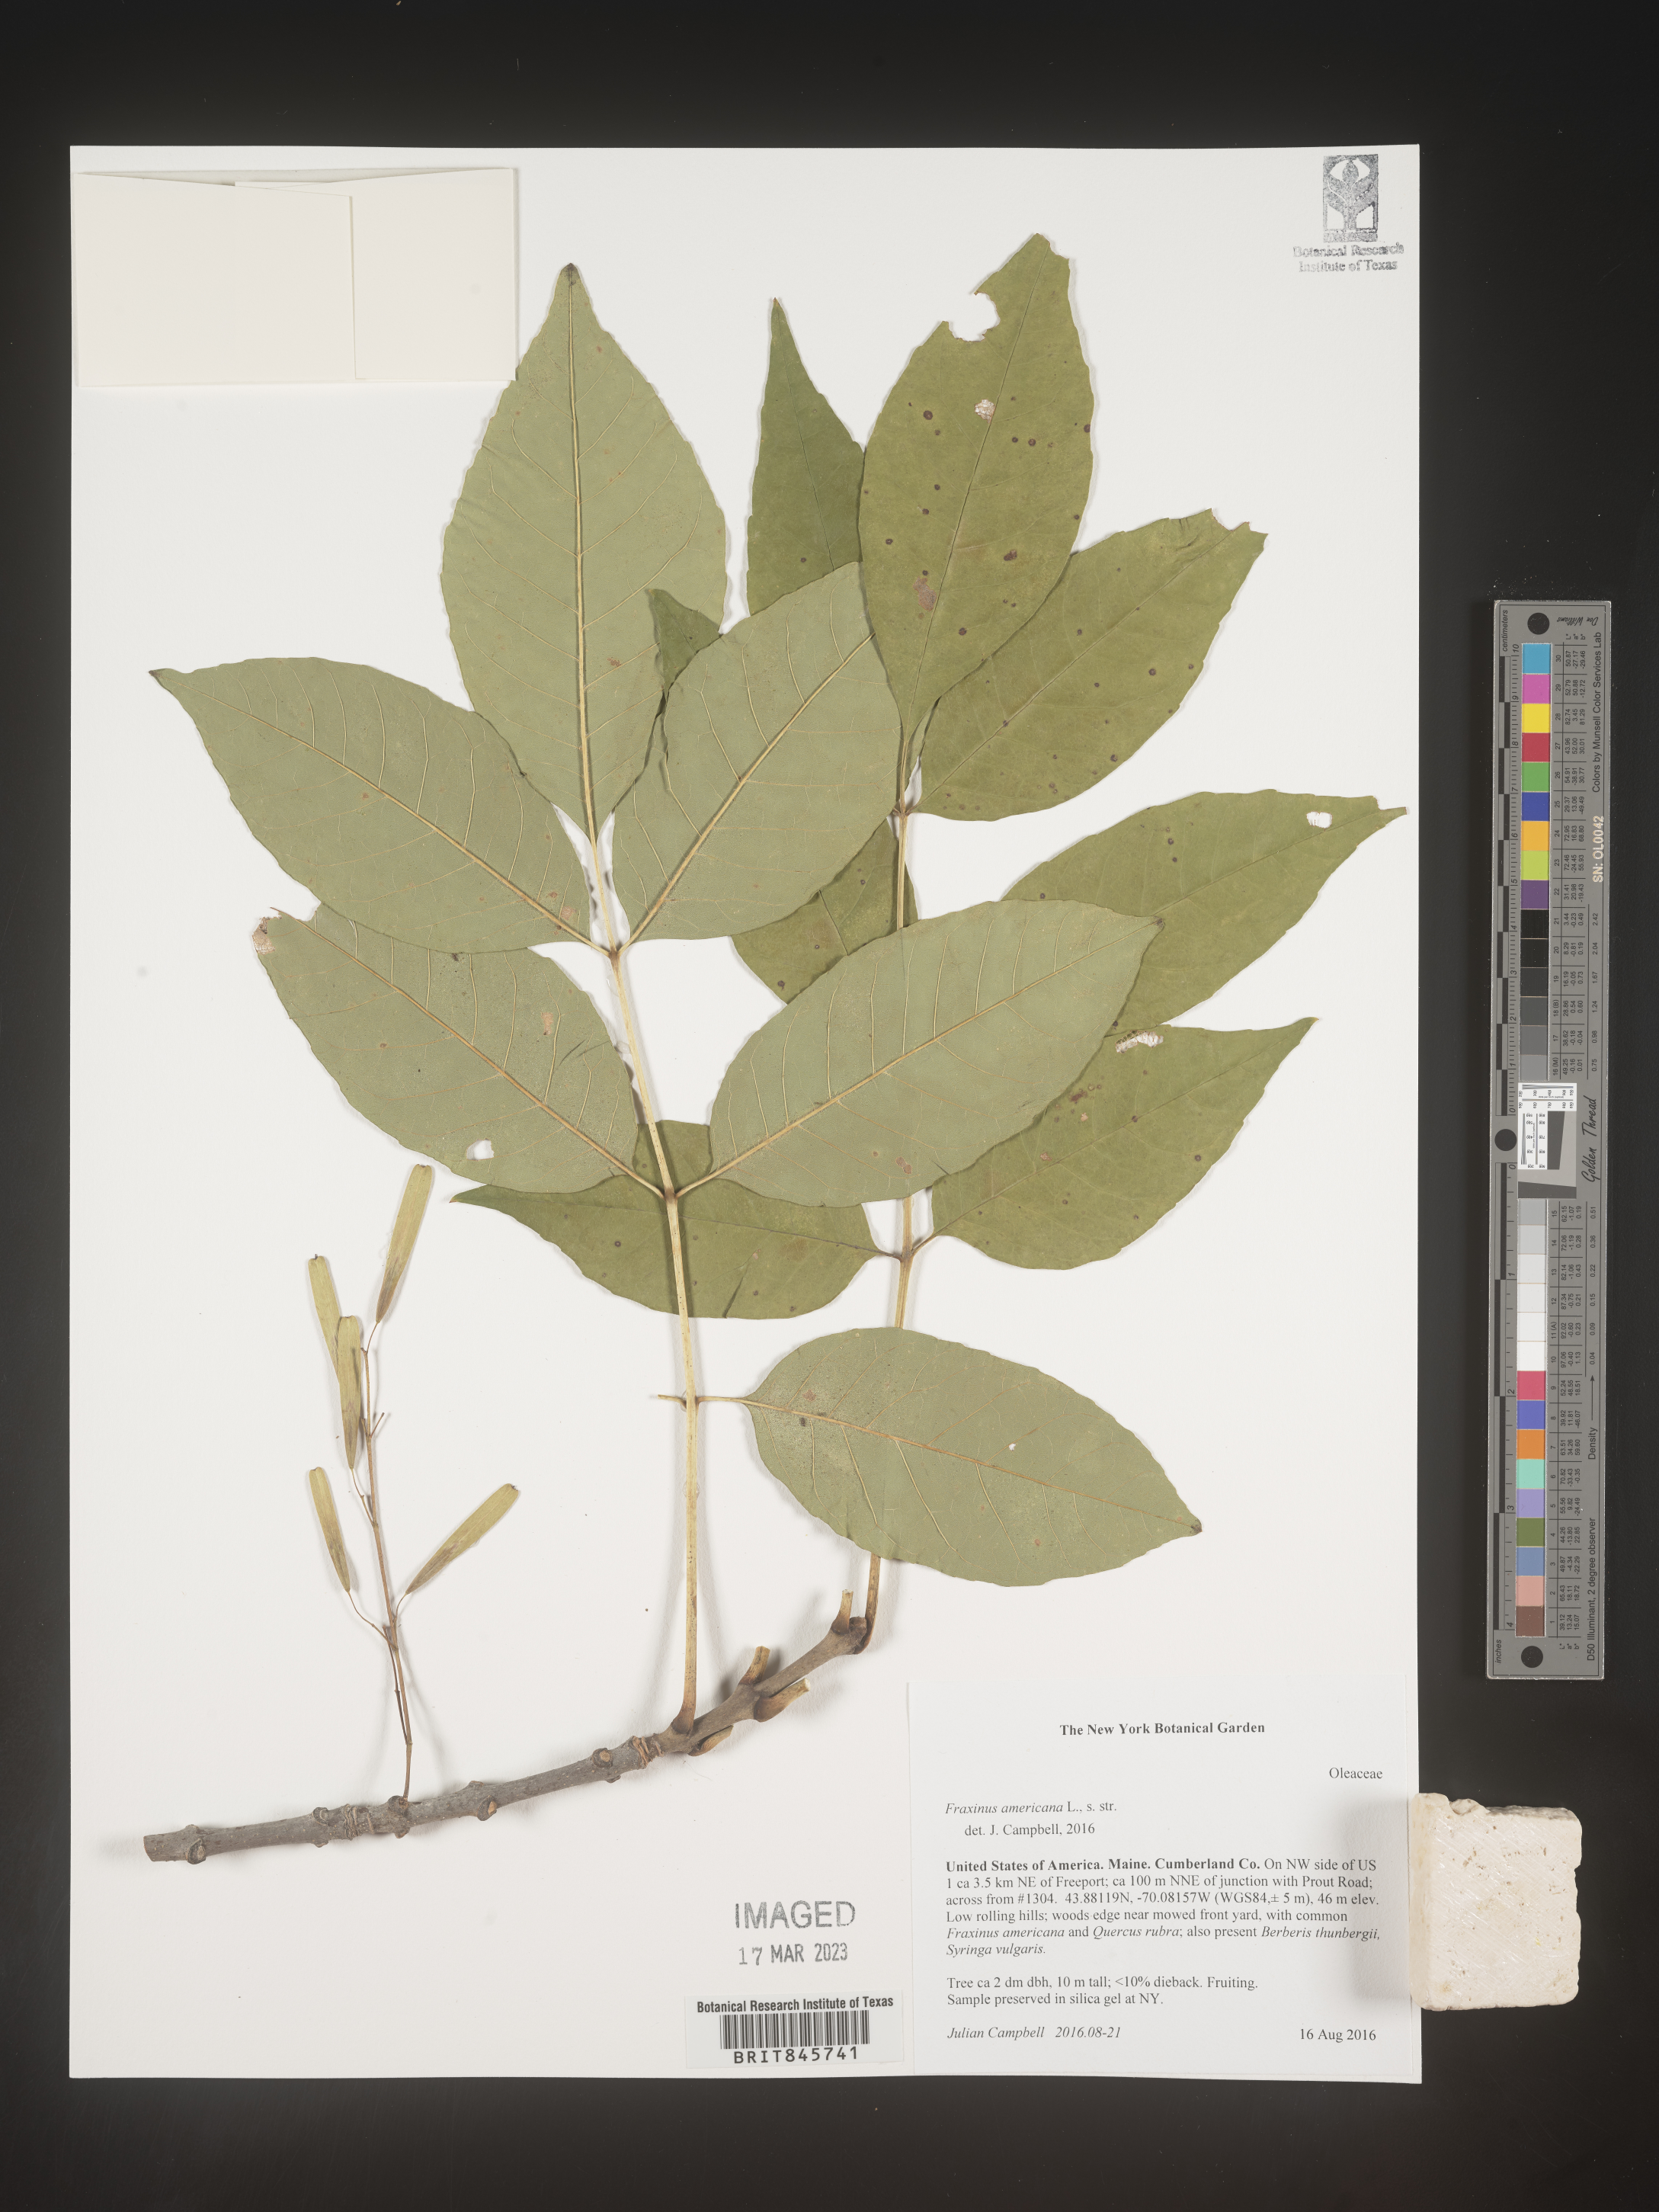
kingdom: Plantae
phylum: Tracheophyta
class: Magnoliopsida
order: Lamiales
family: Oleaceae
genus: Fraxinus
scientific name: Fraxinus americana
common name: White ash
